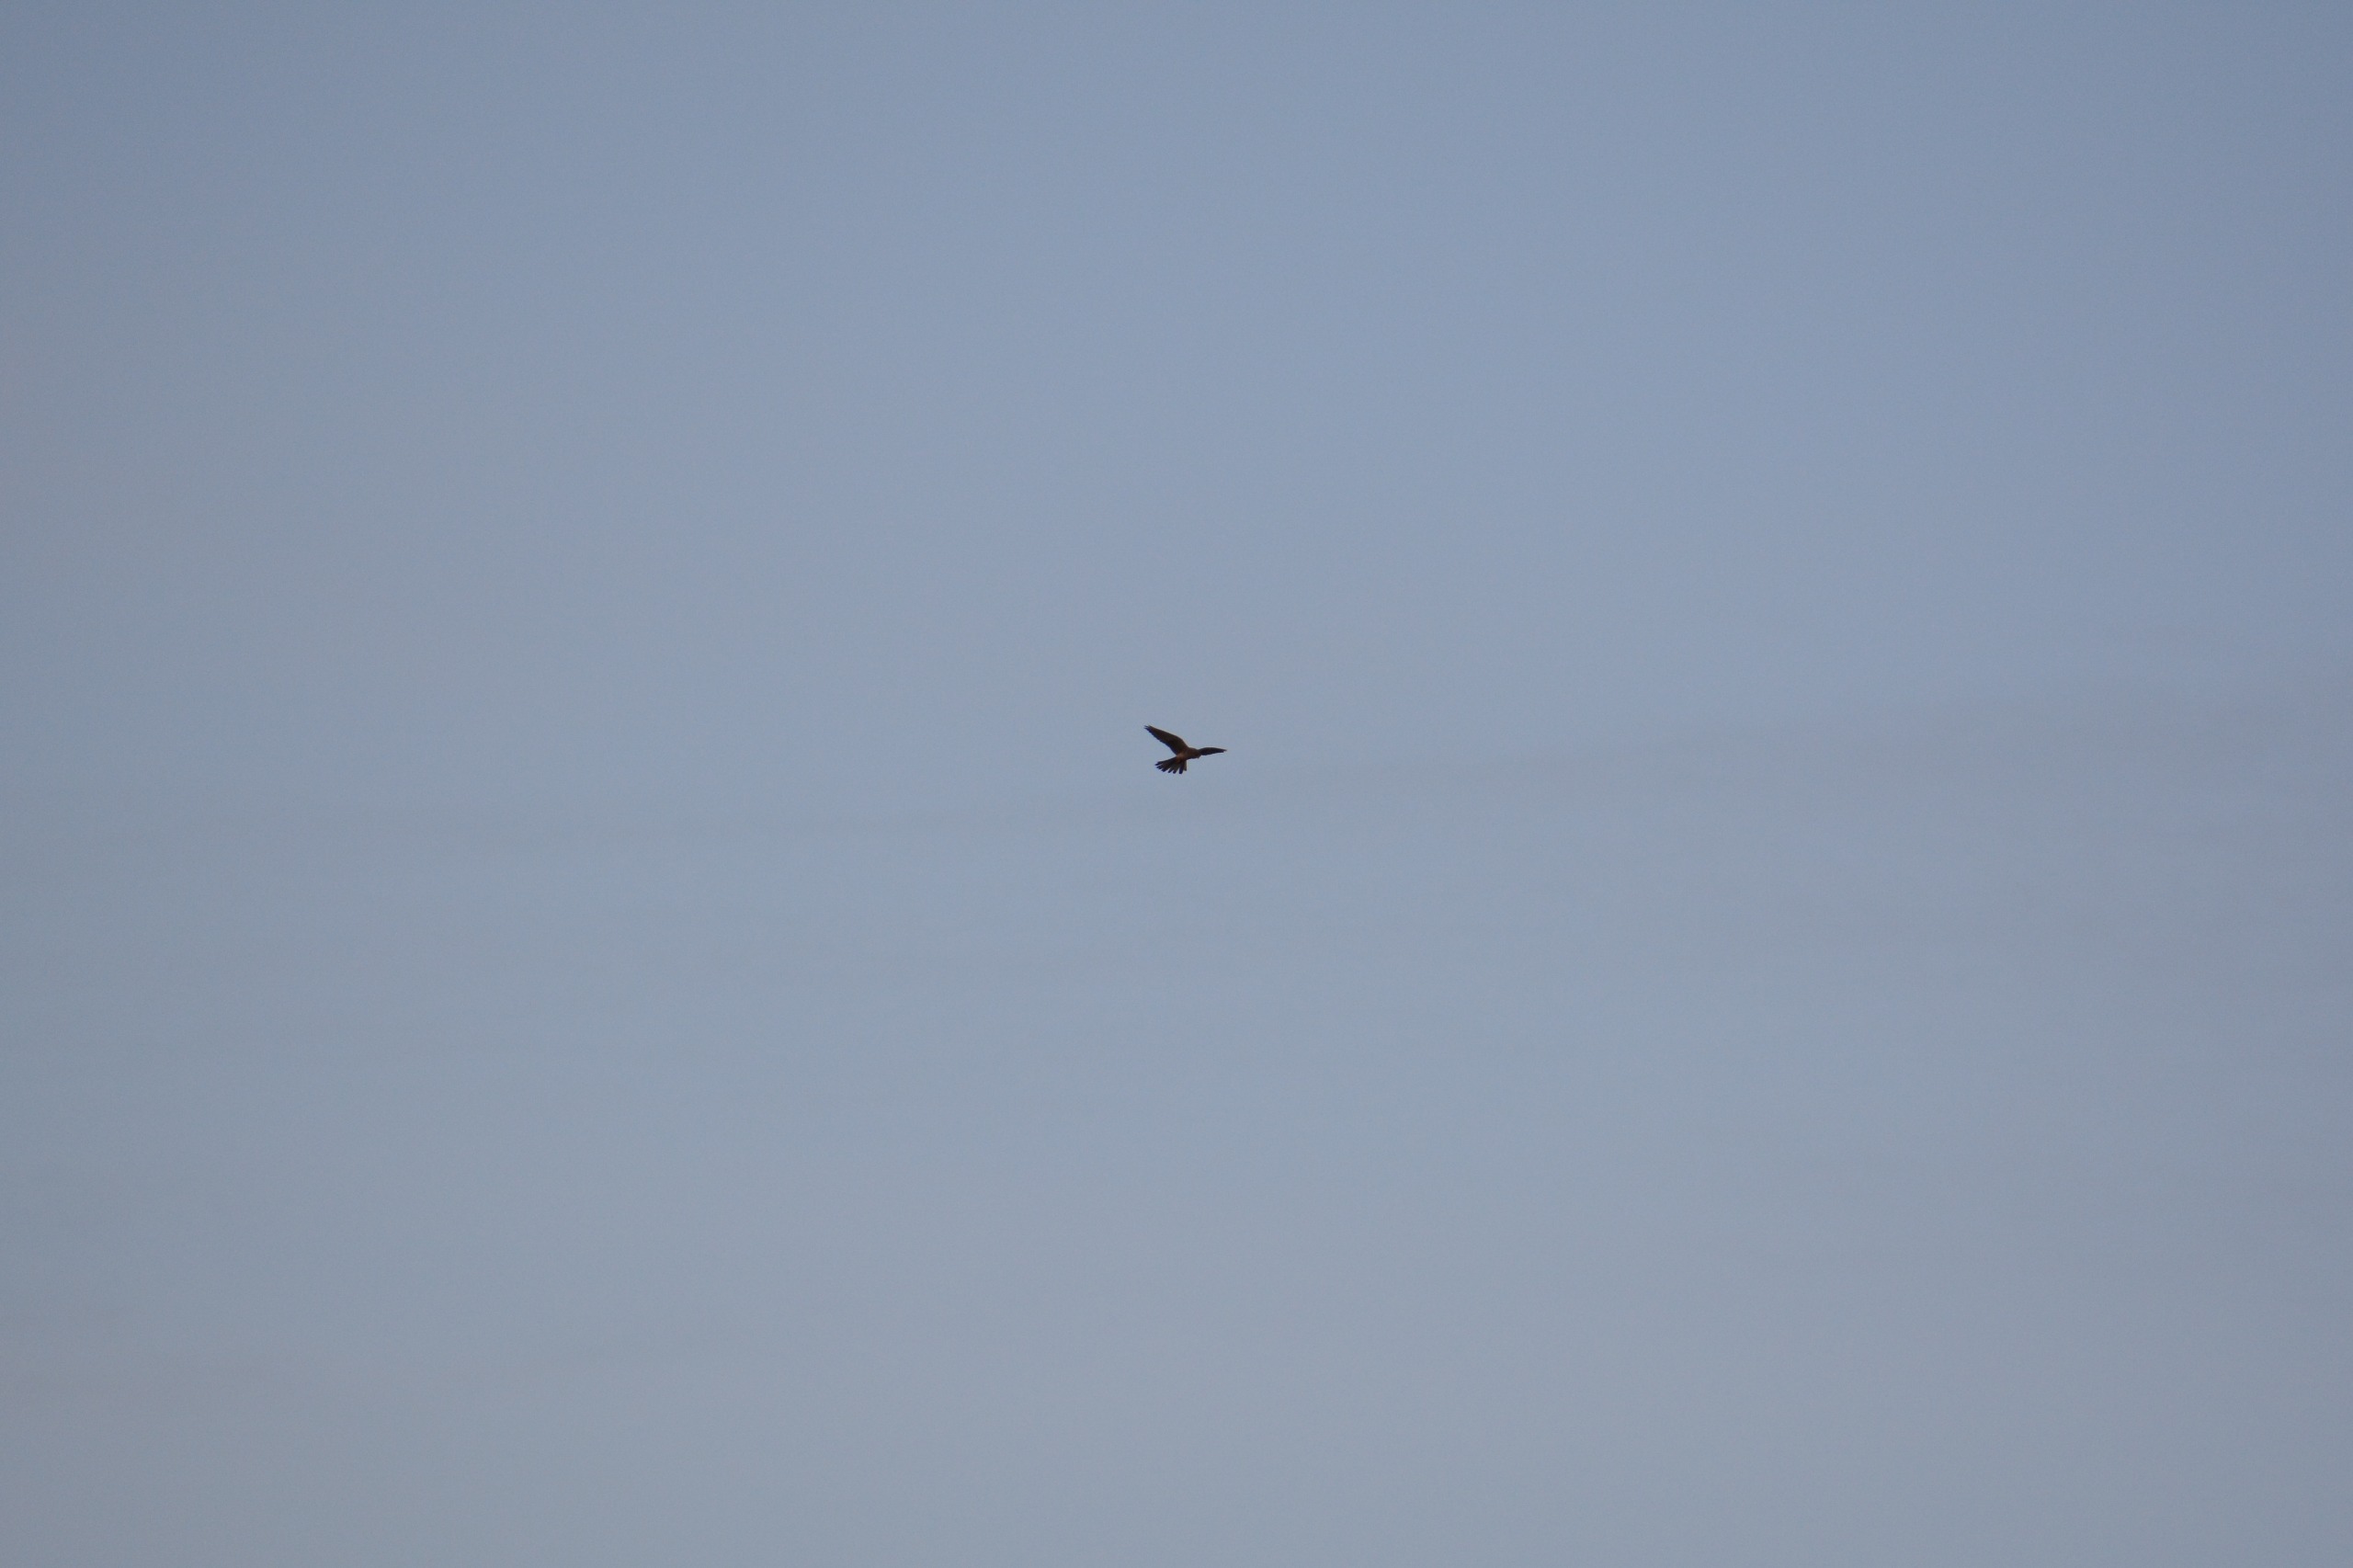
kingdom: Animalia
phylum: Chordata
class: Aves
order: Falconiformes
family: Falconidae
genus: Falco
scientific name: Falco tinnunculus
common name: Tårnfalk
